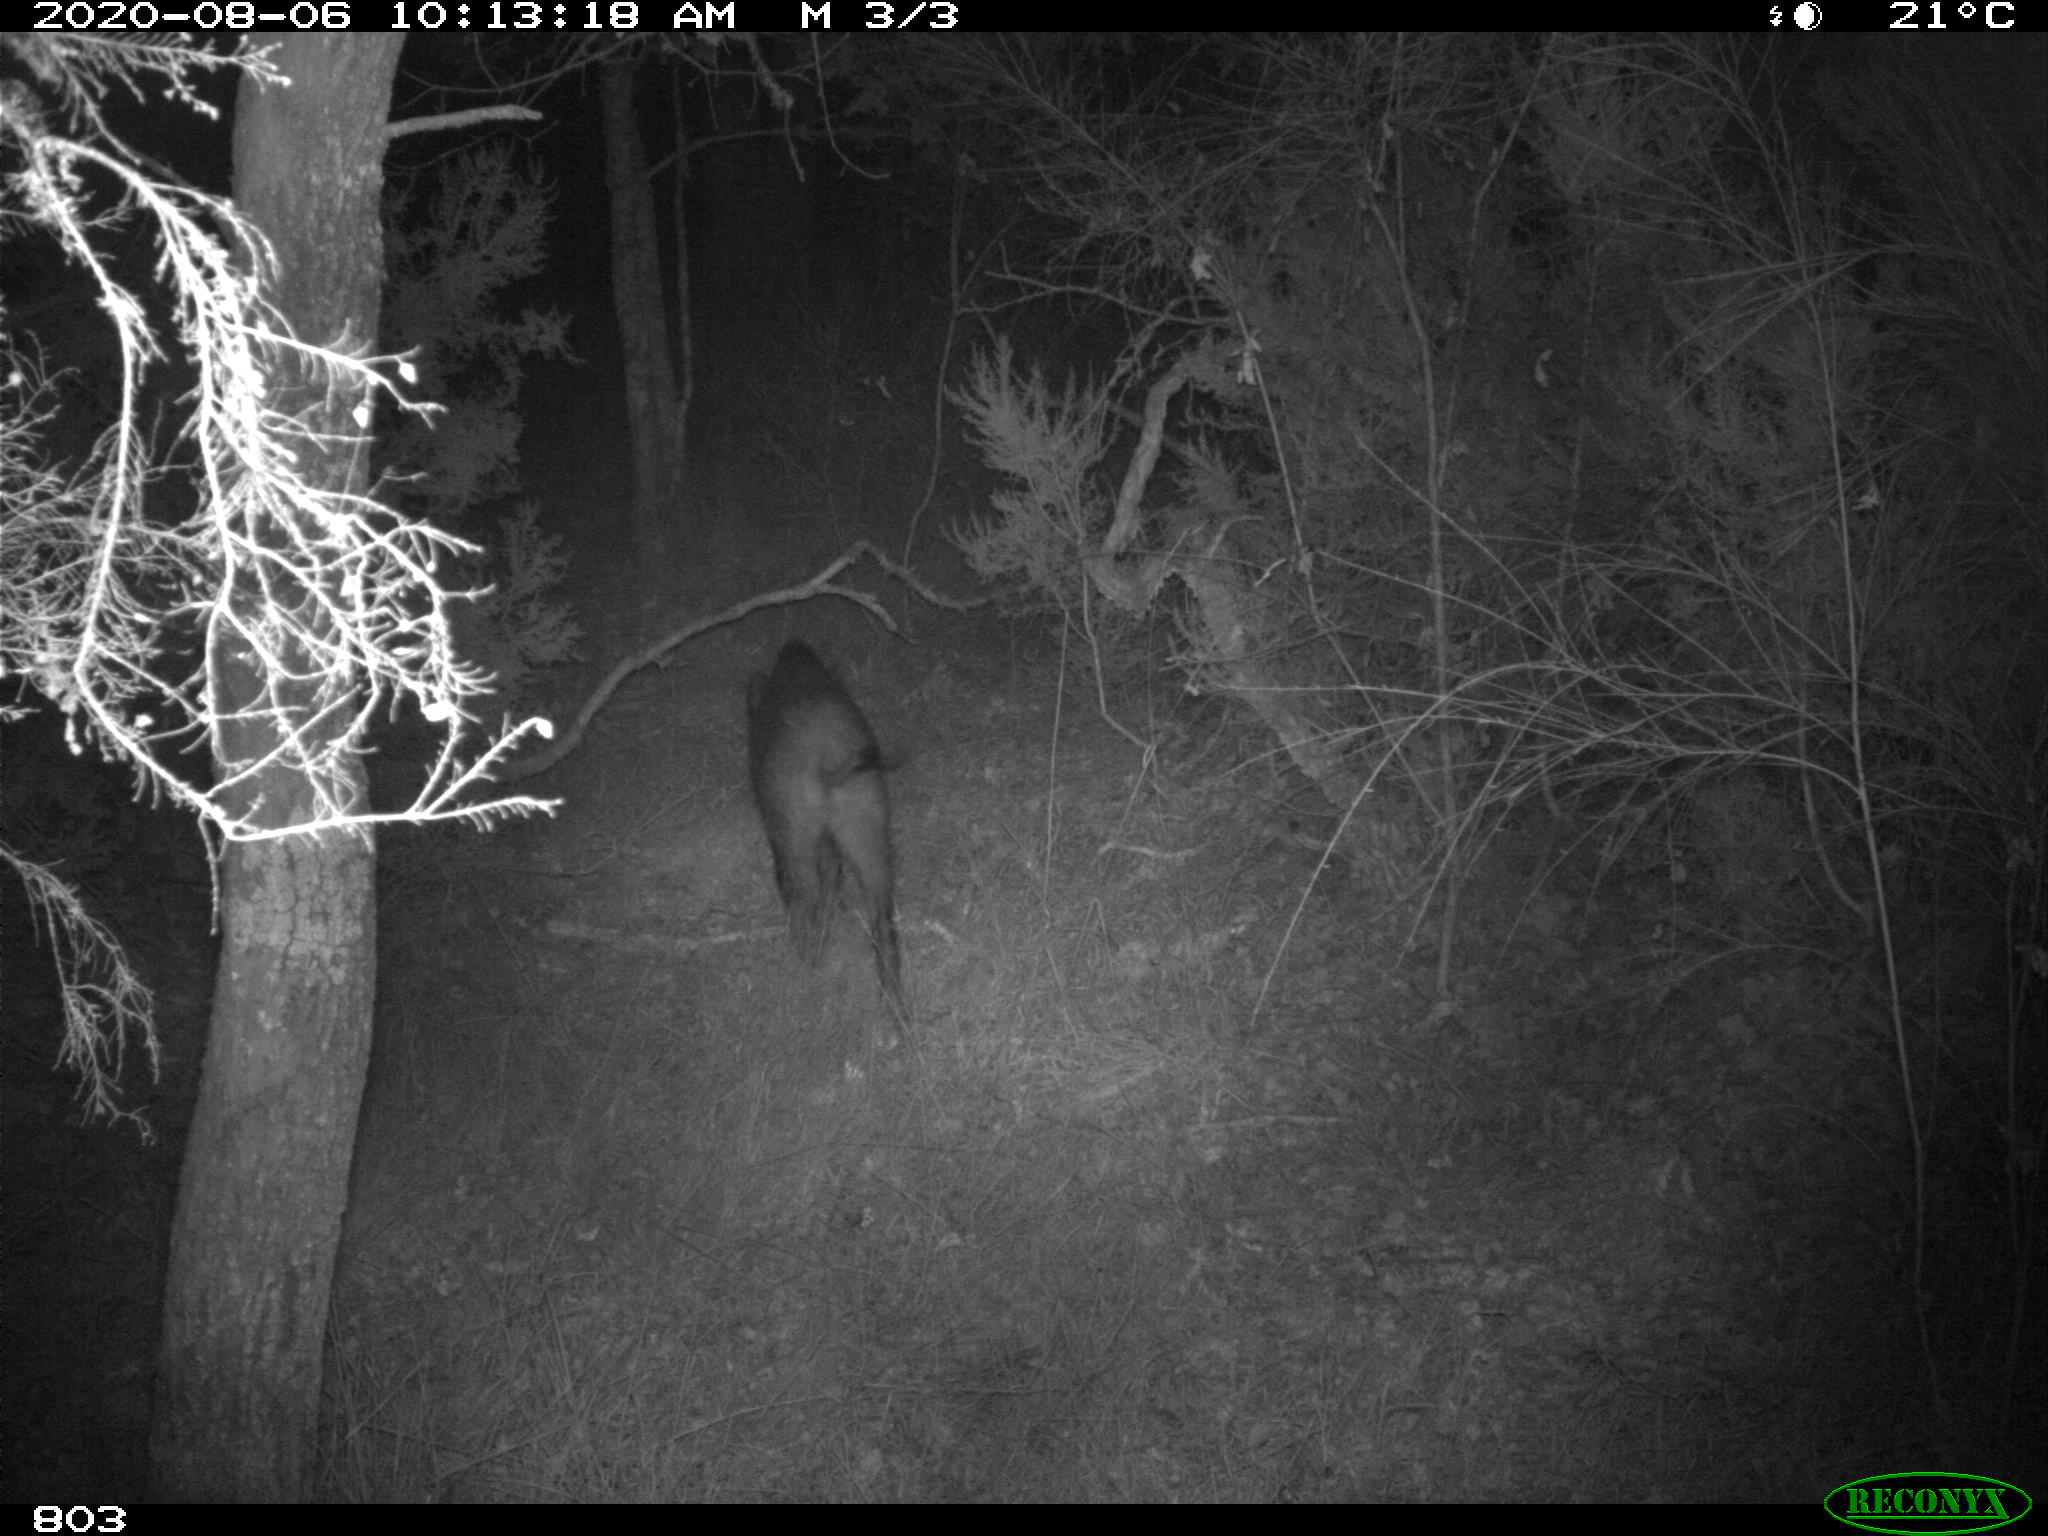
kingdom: Animalia
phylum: Chordata
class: Mammalia
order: Artiodactyla
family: Suidae
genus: Sus
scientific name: Sus scrofa
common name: Wild boar
